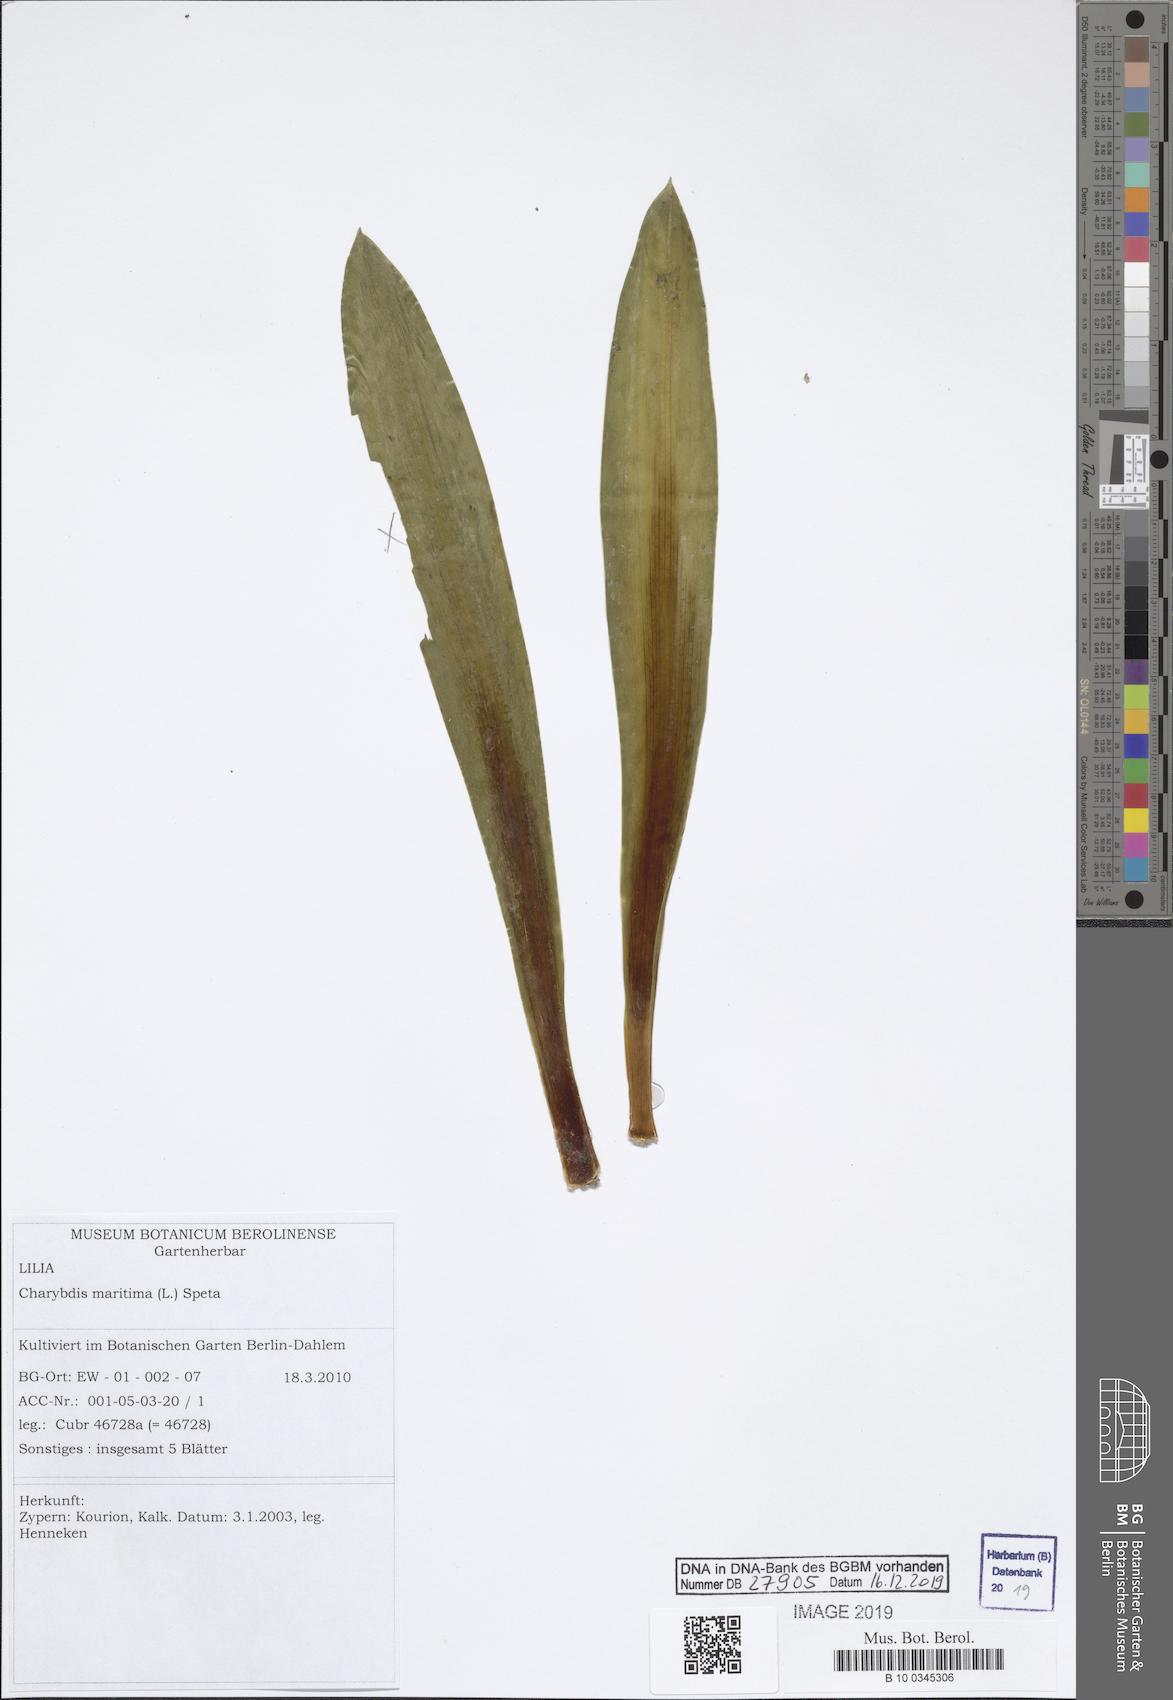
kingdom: Plantae
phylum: Tracheophyta
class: Liliopsida
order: Asparagales
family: Asparagaceae
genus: Drimia
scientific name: Drimia maritima
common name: Maritime squill
